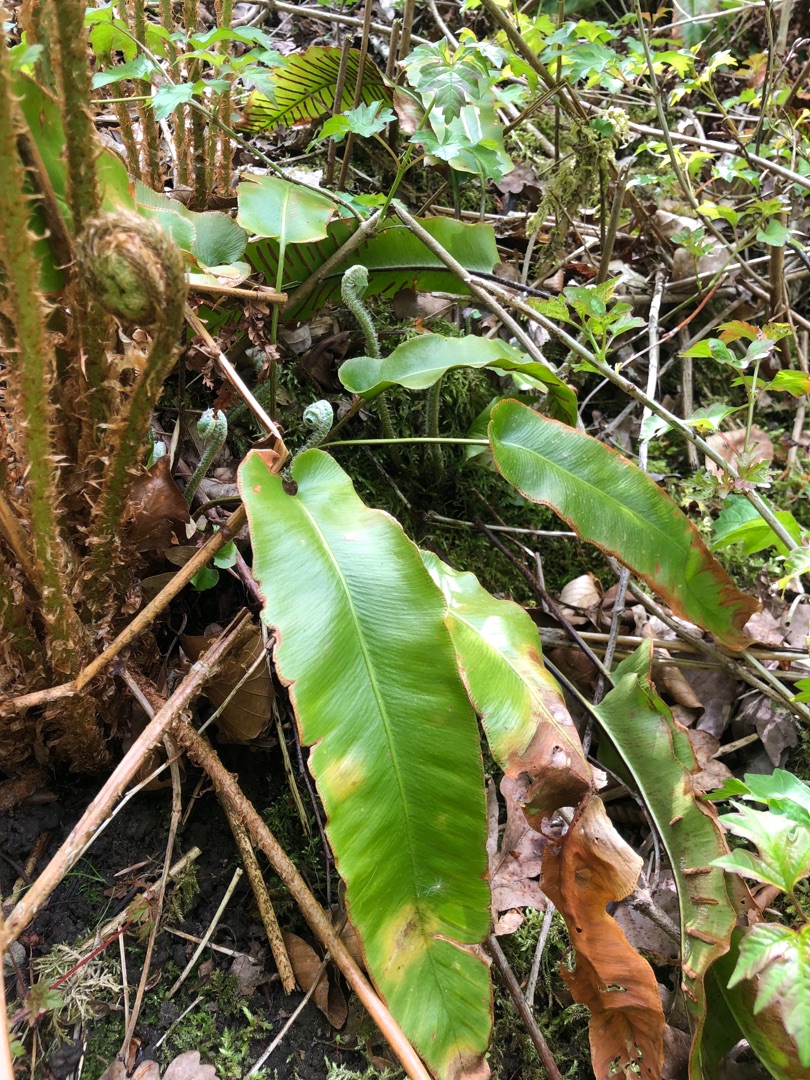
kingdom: Plantae
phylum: Tracheophyta
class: Polypodiopsida
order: Polypodiales
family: Aspleniaceae
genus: Asplenium
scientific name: Asplenium scolopendrium
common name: Hjortetunge
